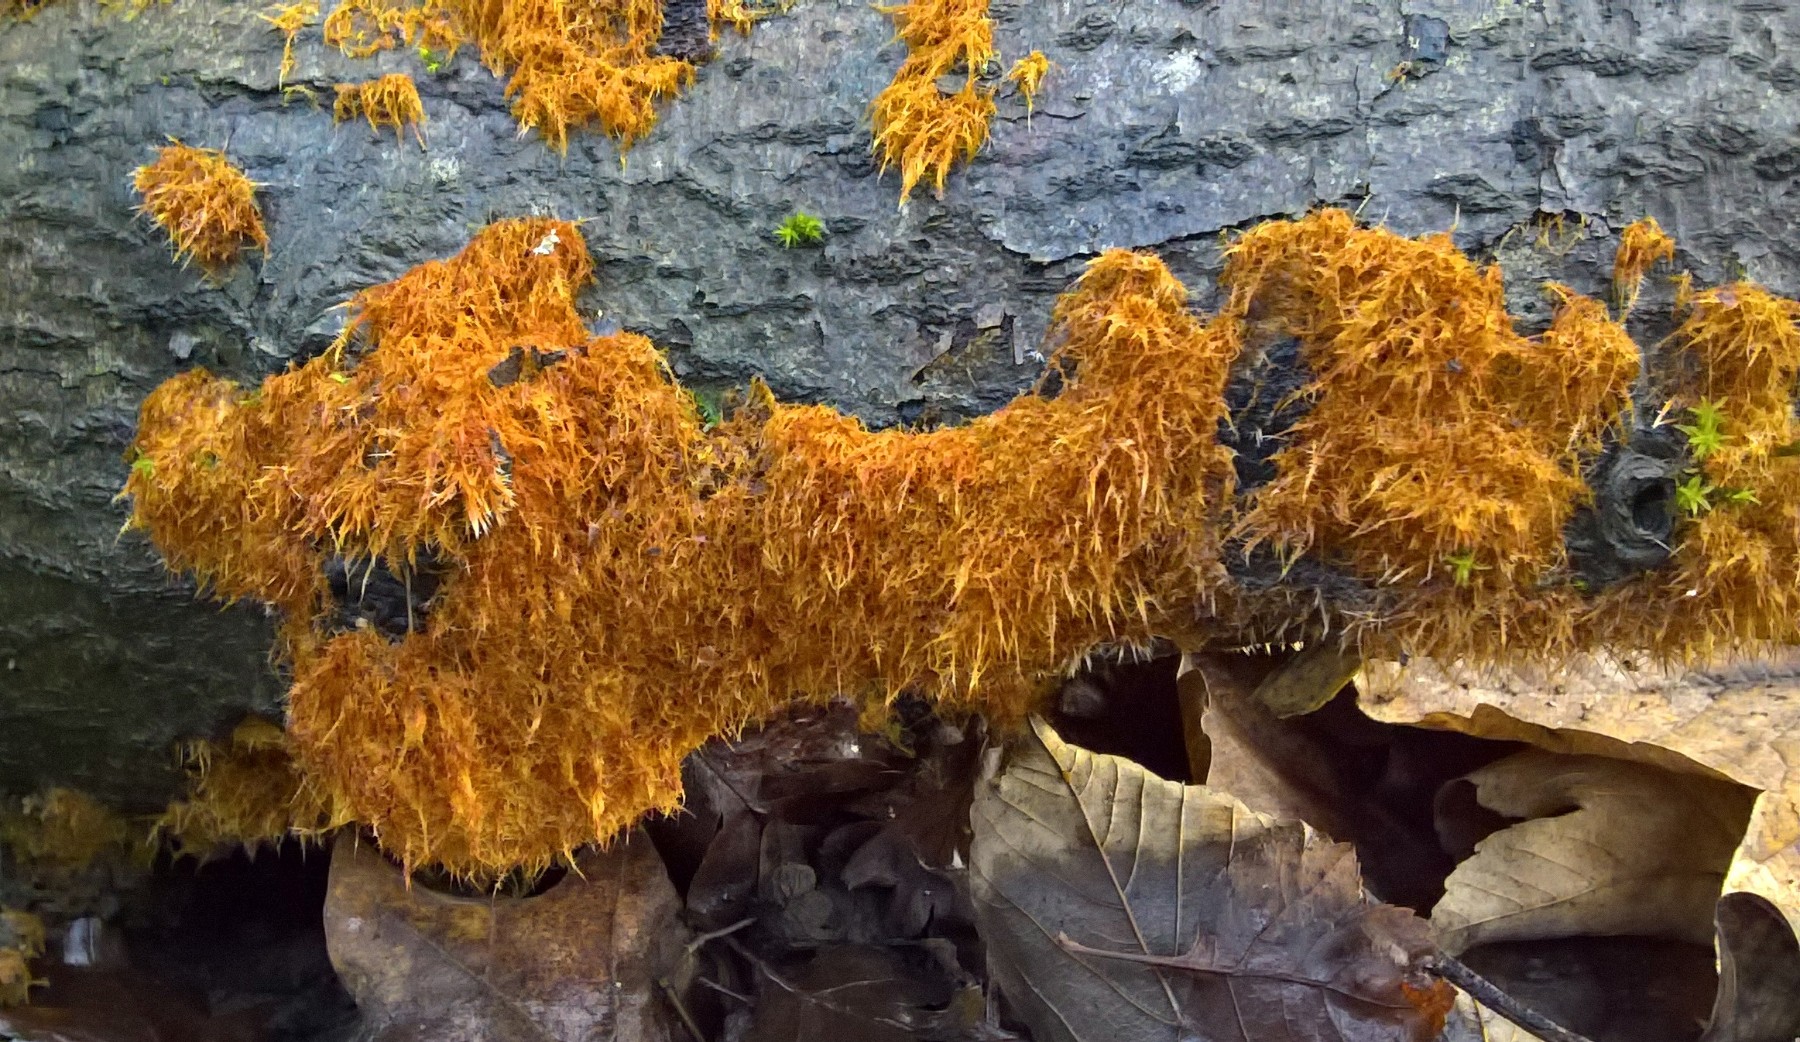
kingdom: Fungi
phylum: Basidiomycota
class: Agaricomycetes
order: Agaricales
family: Psathyrellaceae
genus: Ozonium
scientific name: Ozonium
